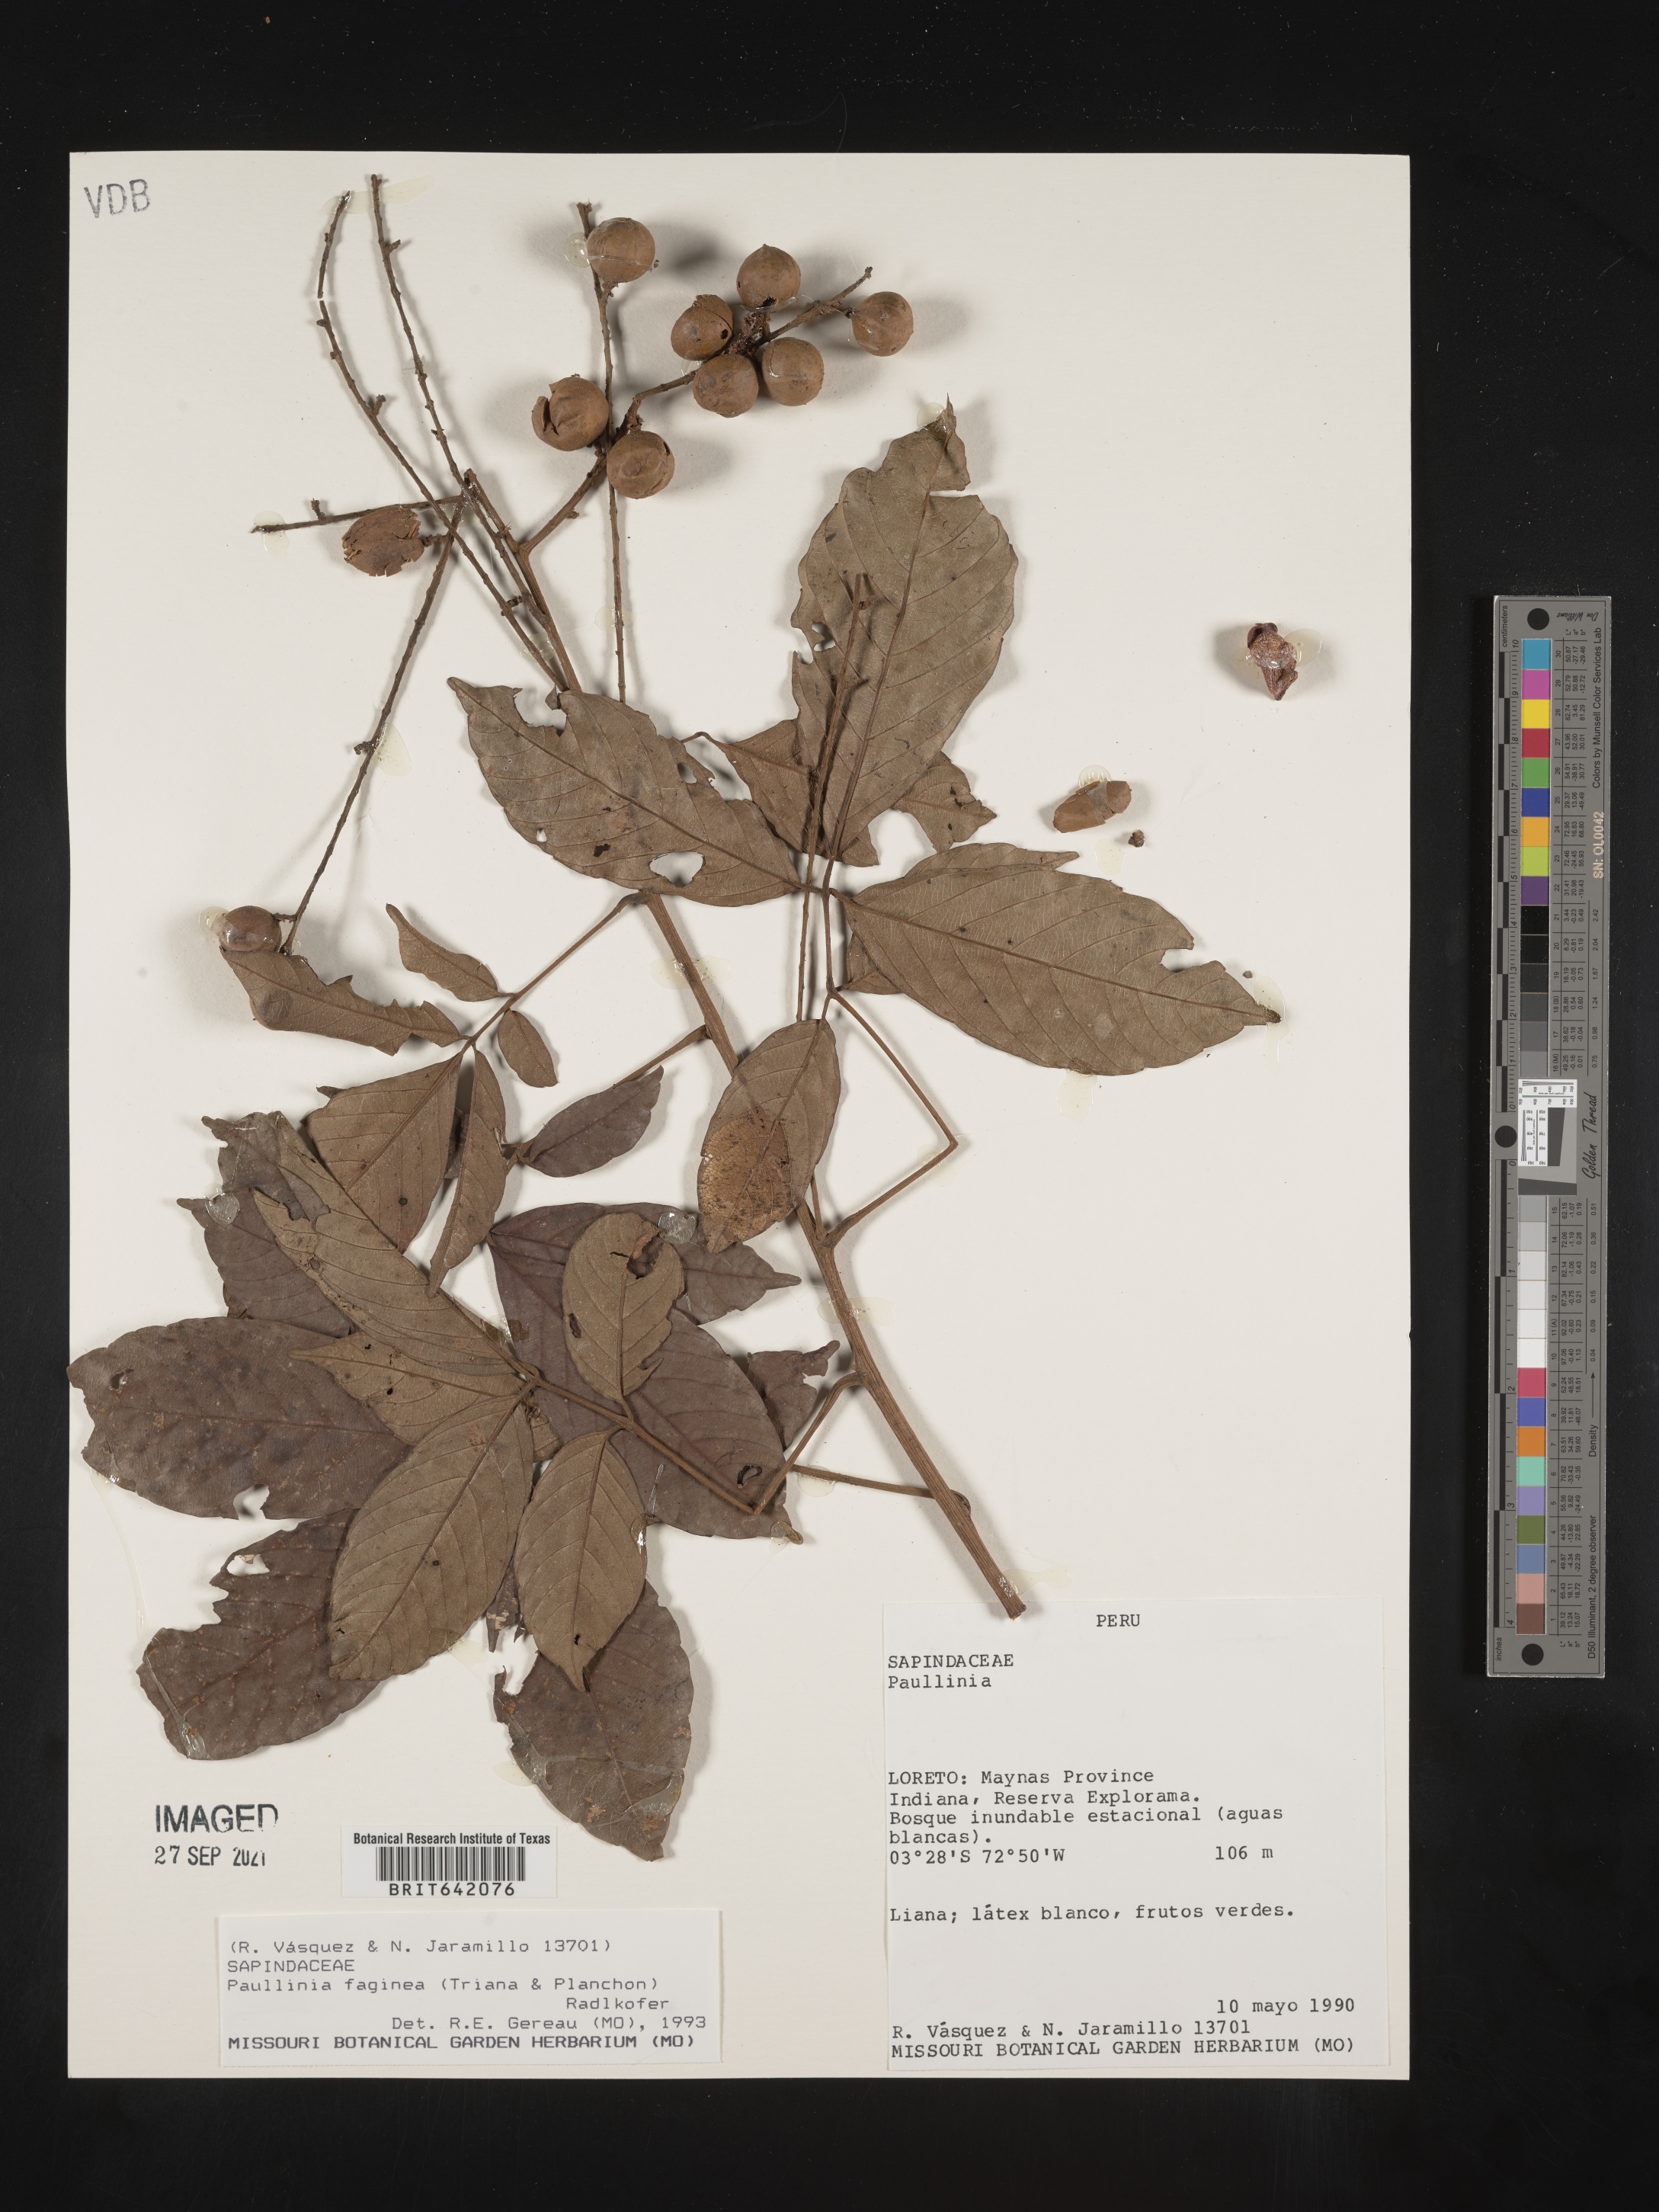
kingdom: Plantae
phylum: Tracheophyta
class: Magnoliopsida
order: Sapindales
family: Sapindaceae
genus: Paullinia
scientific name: Paullinia
